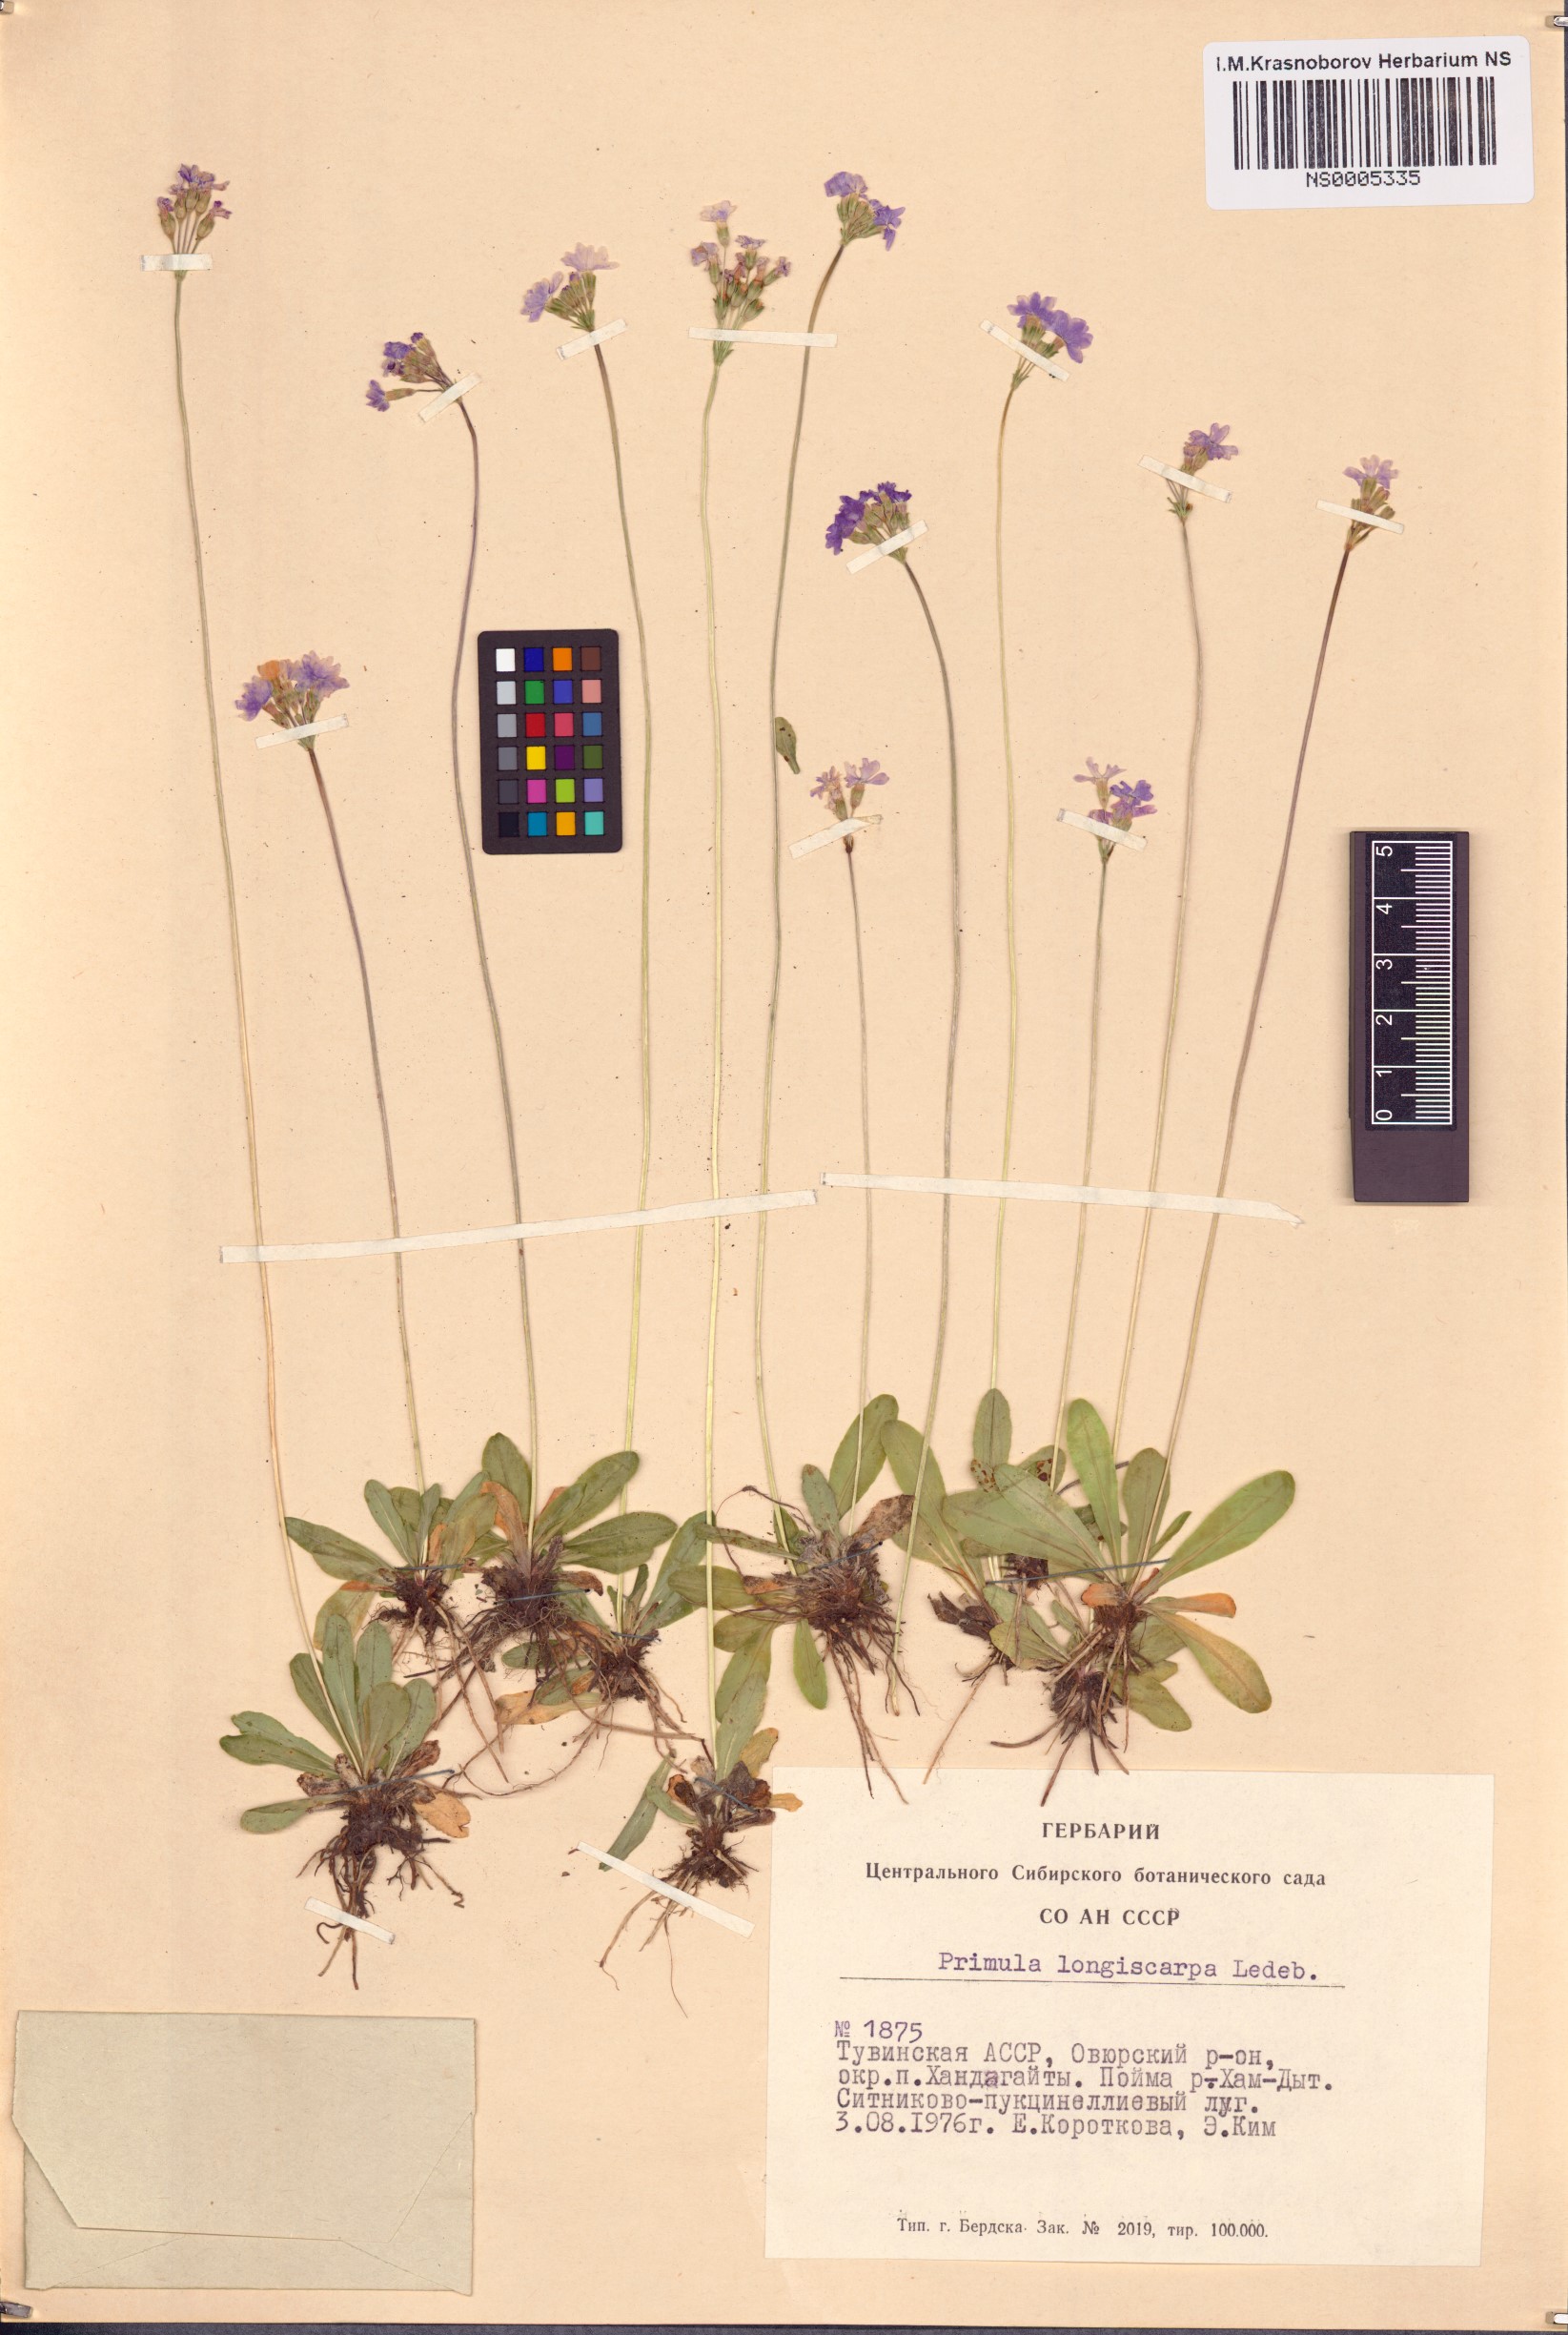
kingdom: Plantae
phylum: Tracheophyta
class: Magnoliopsida
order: Ericales
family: Primulaceae
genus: Primula
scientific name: Primula longiscapa
